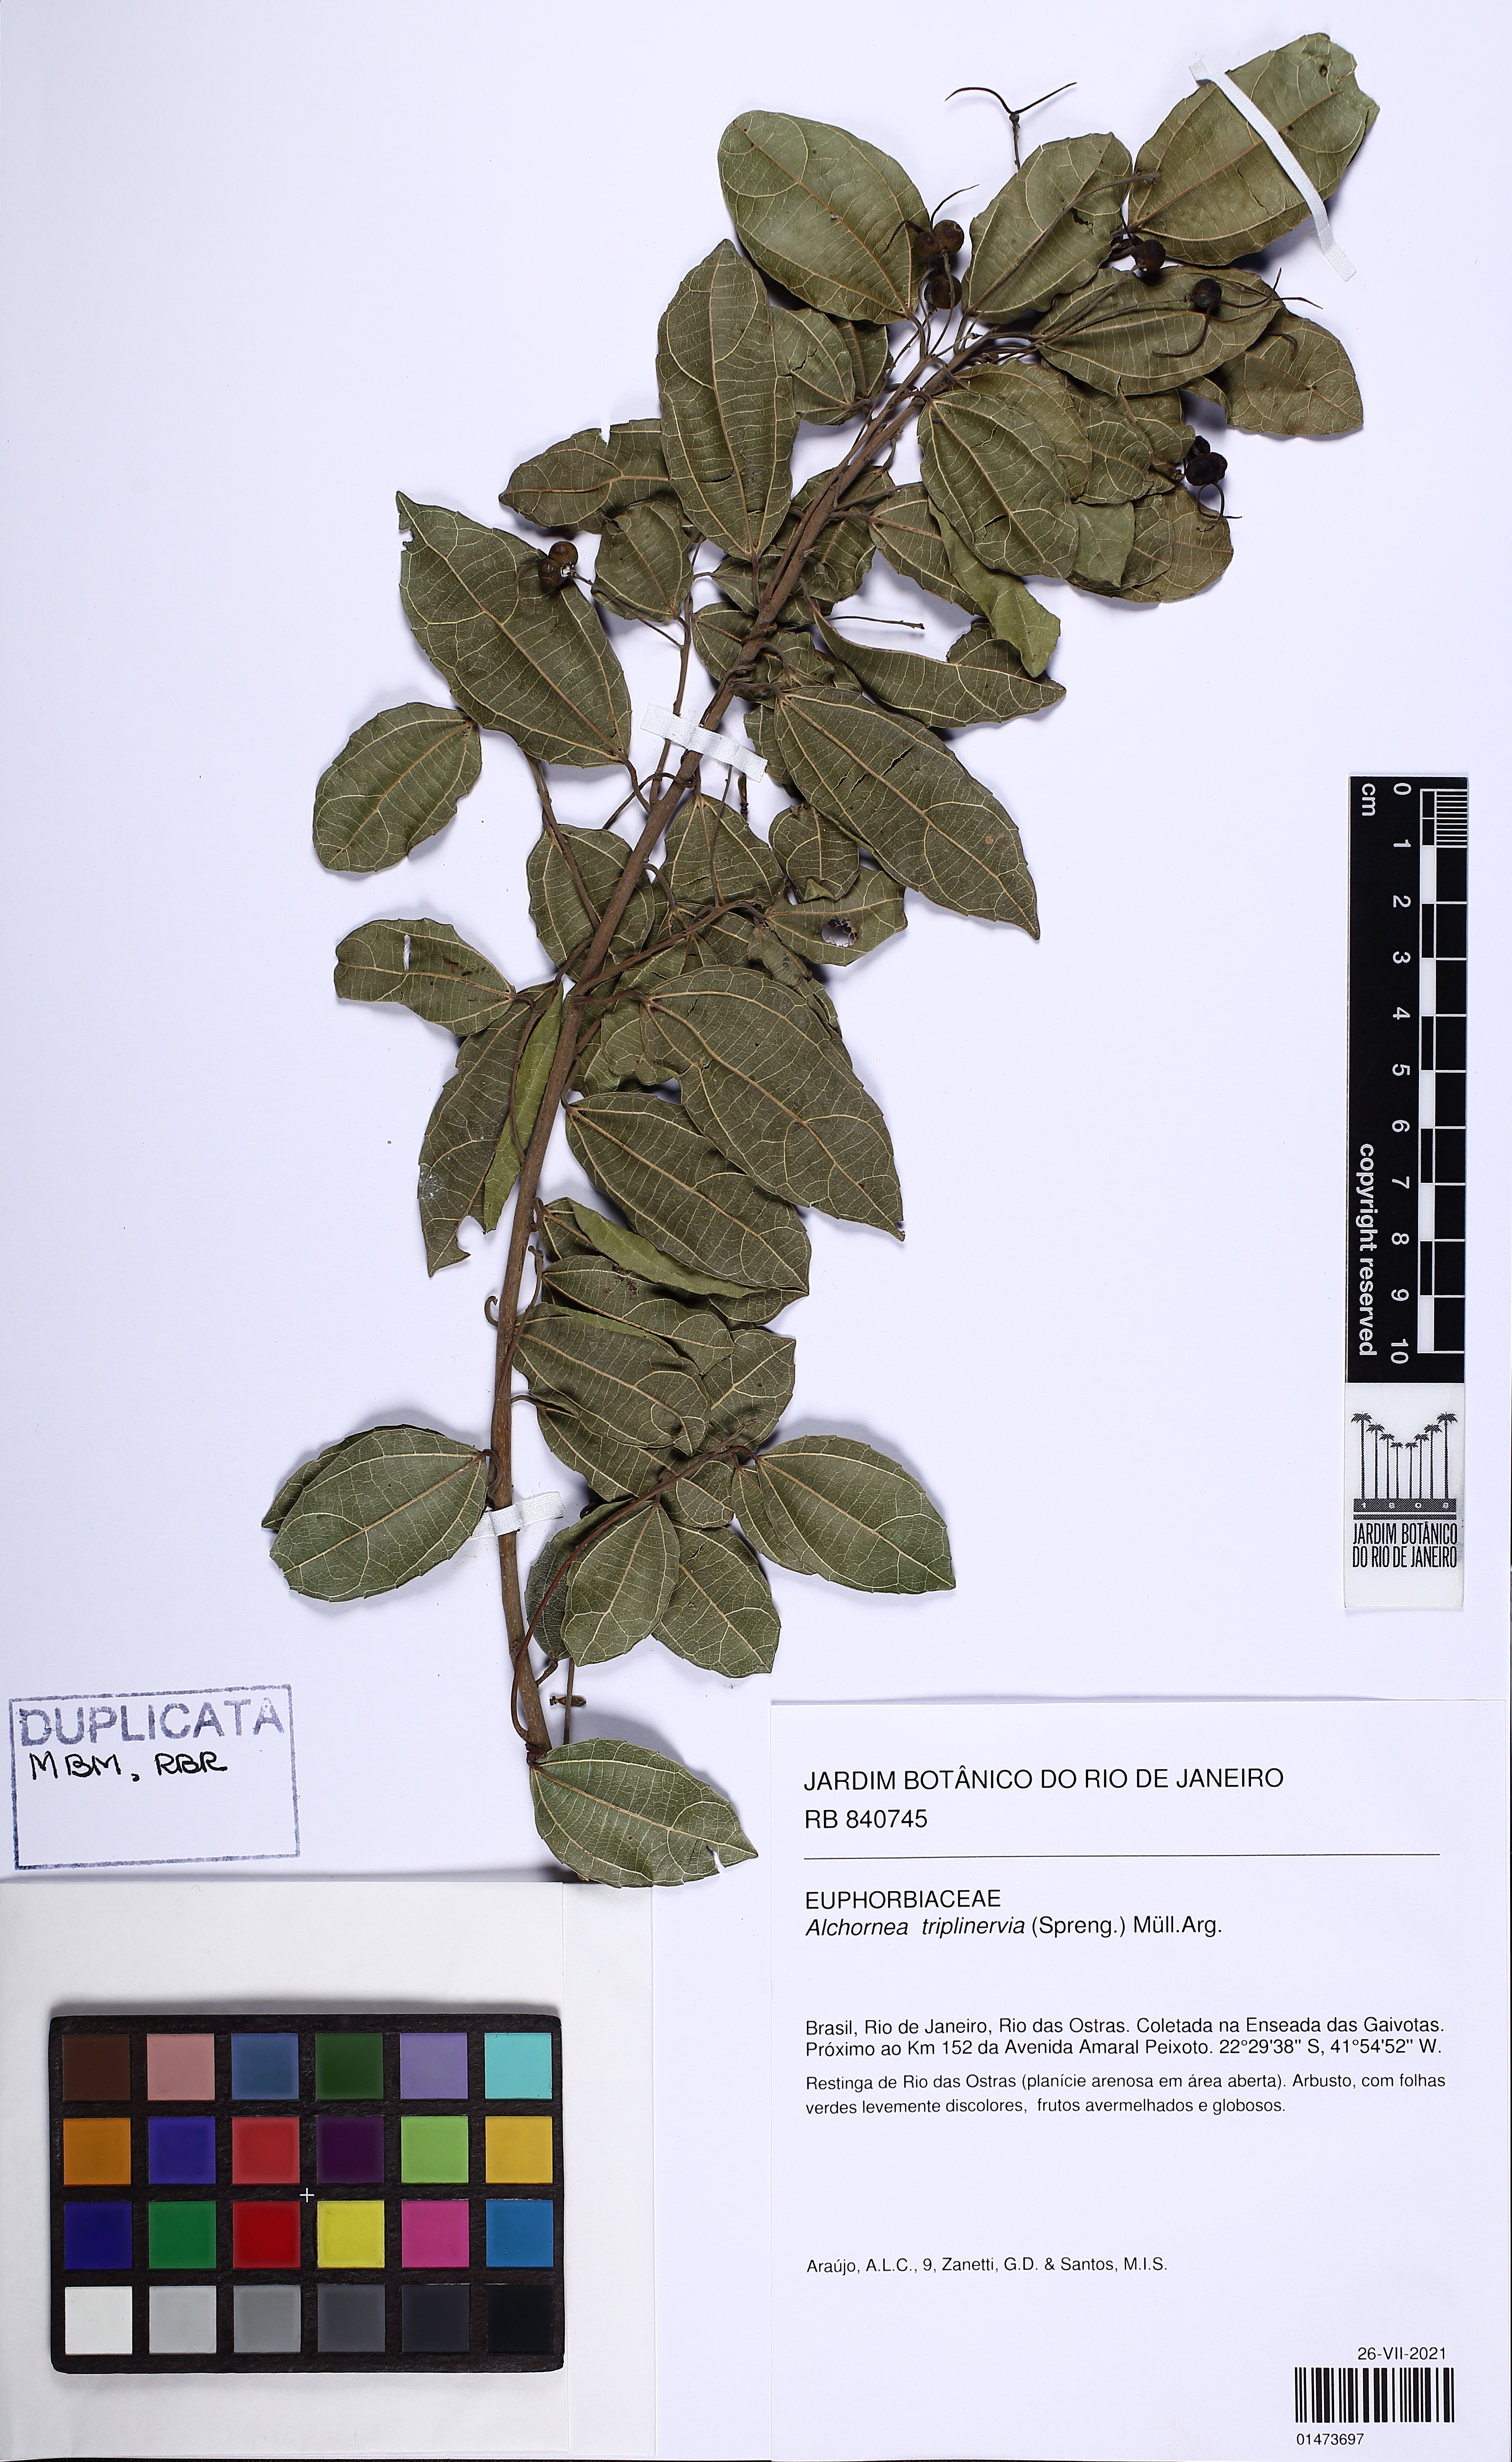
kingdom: Plantae
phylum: Tracheophyta
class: Magnoliopsida
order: Malpighiales
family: Euphorbiaceae
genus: Alchornea
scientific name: Alchornea triplinervia
